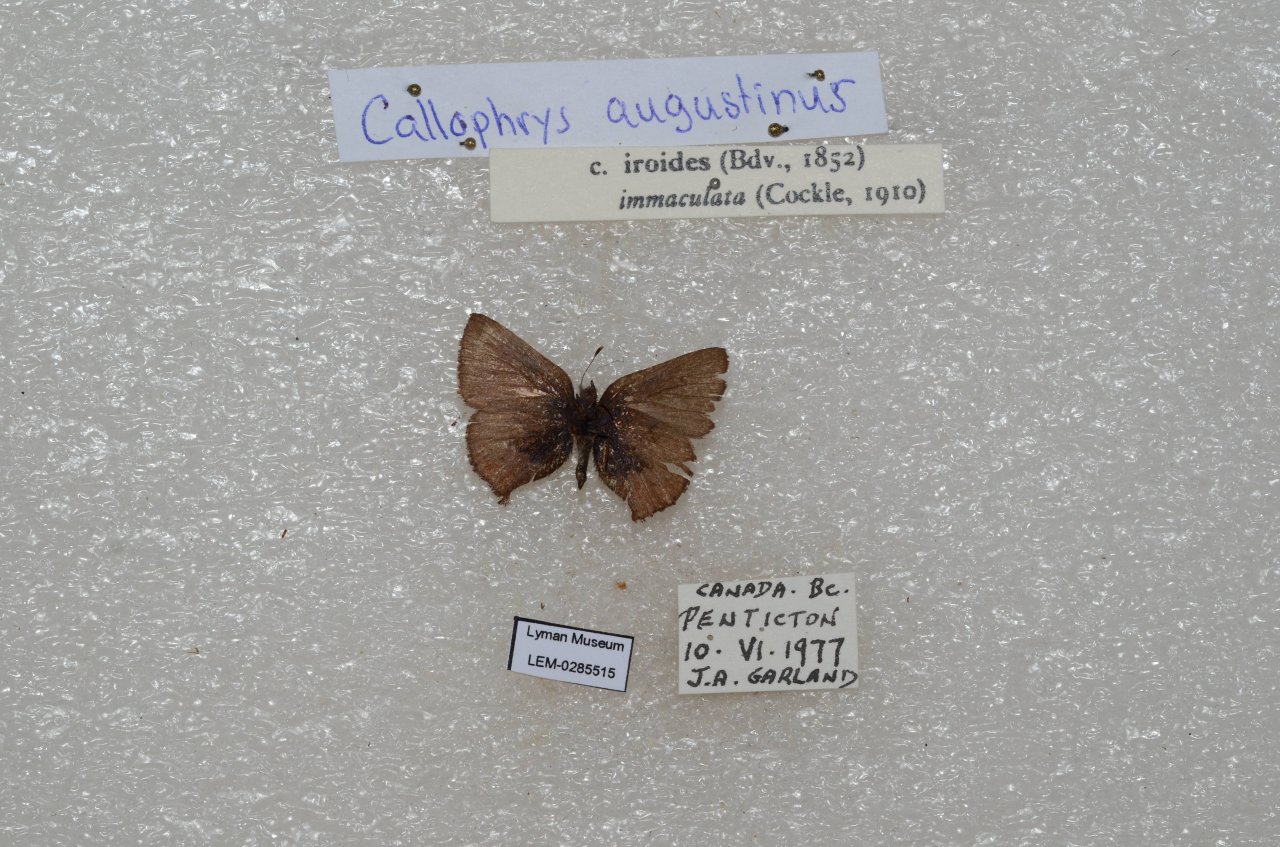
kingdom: Animalia
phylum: Arthropoda
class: Insecta
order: Lepidoptera
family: Lycaenidae
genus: Incisalia
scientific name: Incisalia irioides
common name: Brown Elfin
